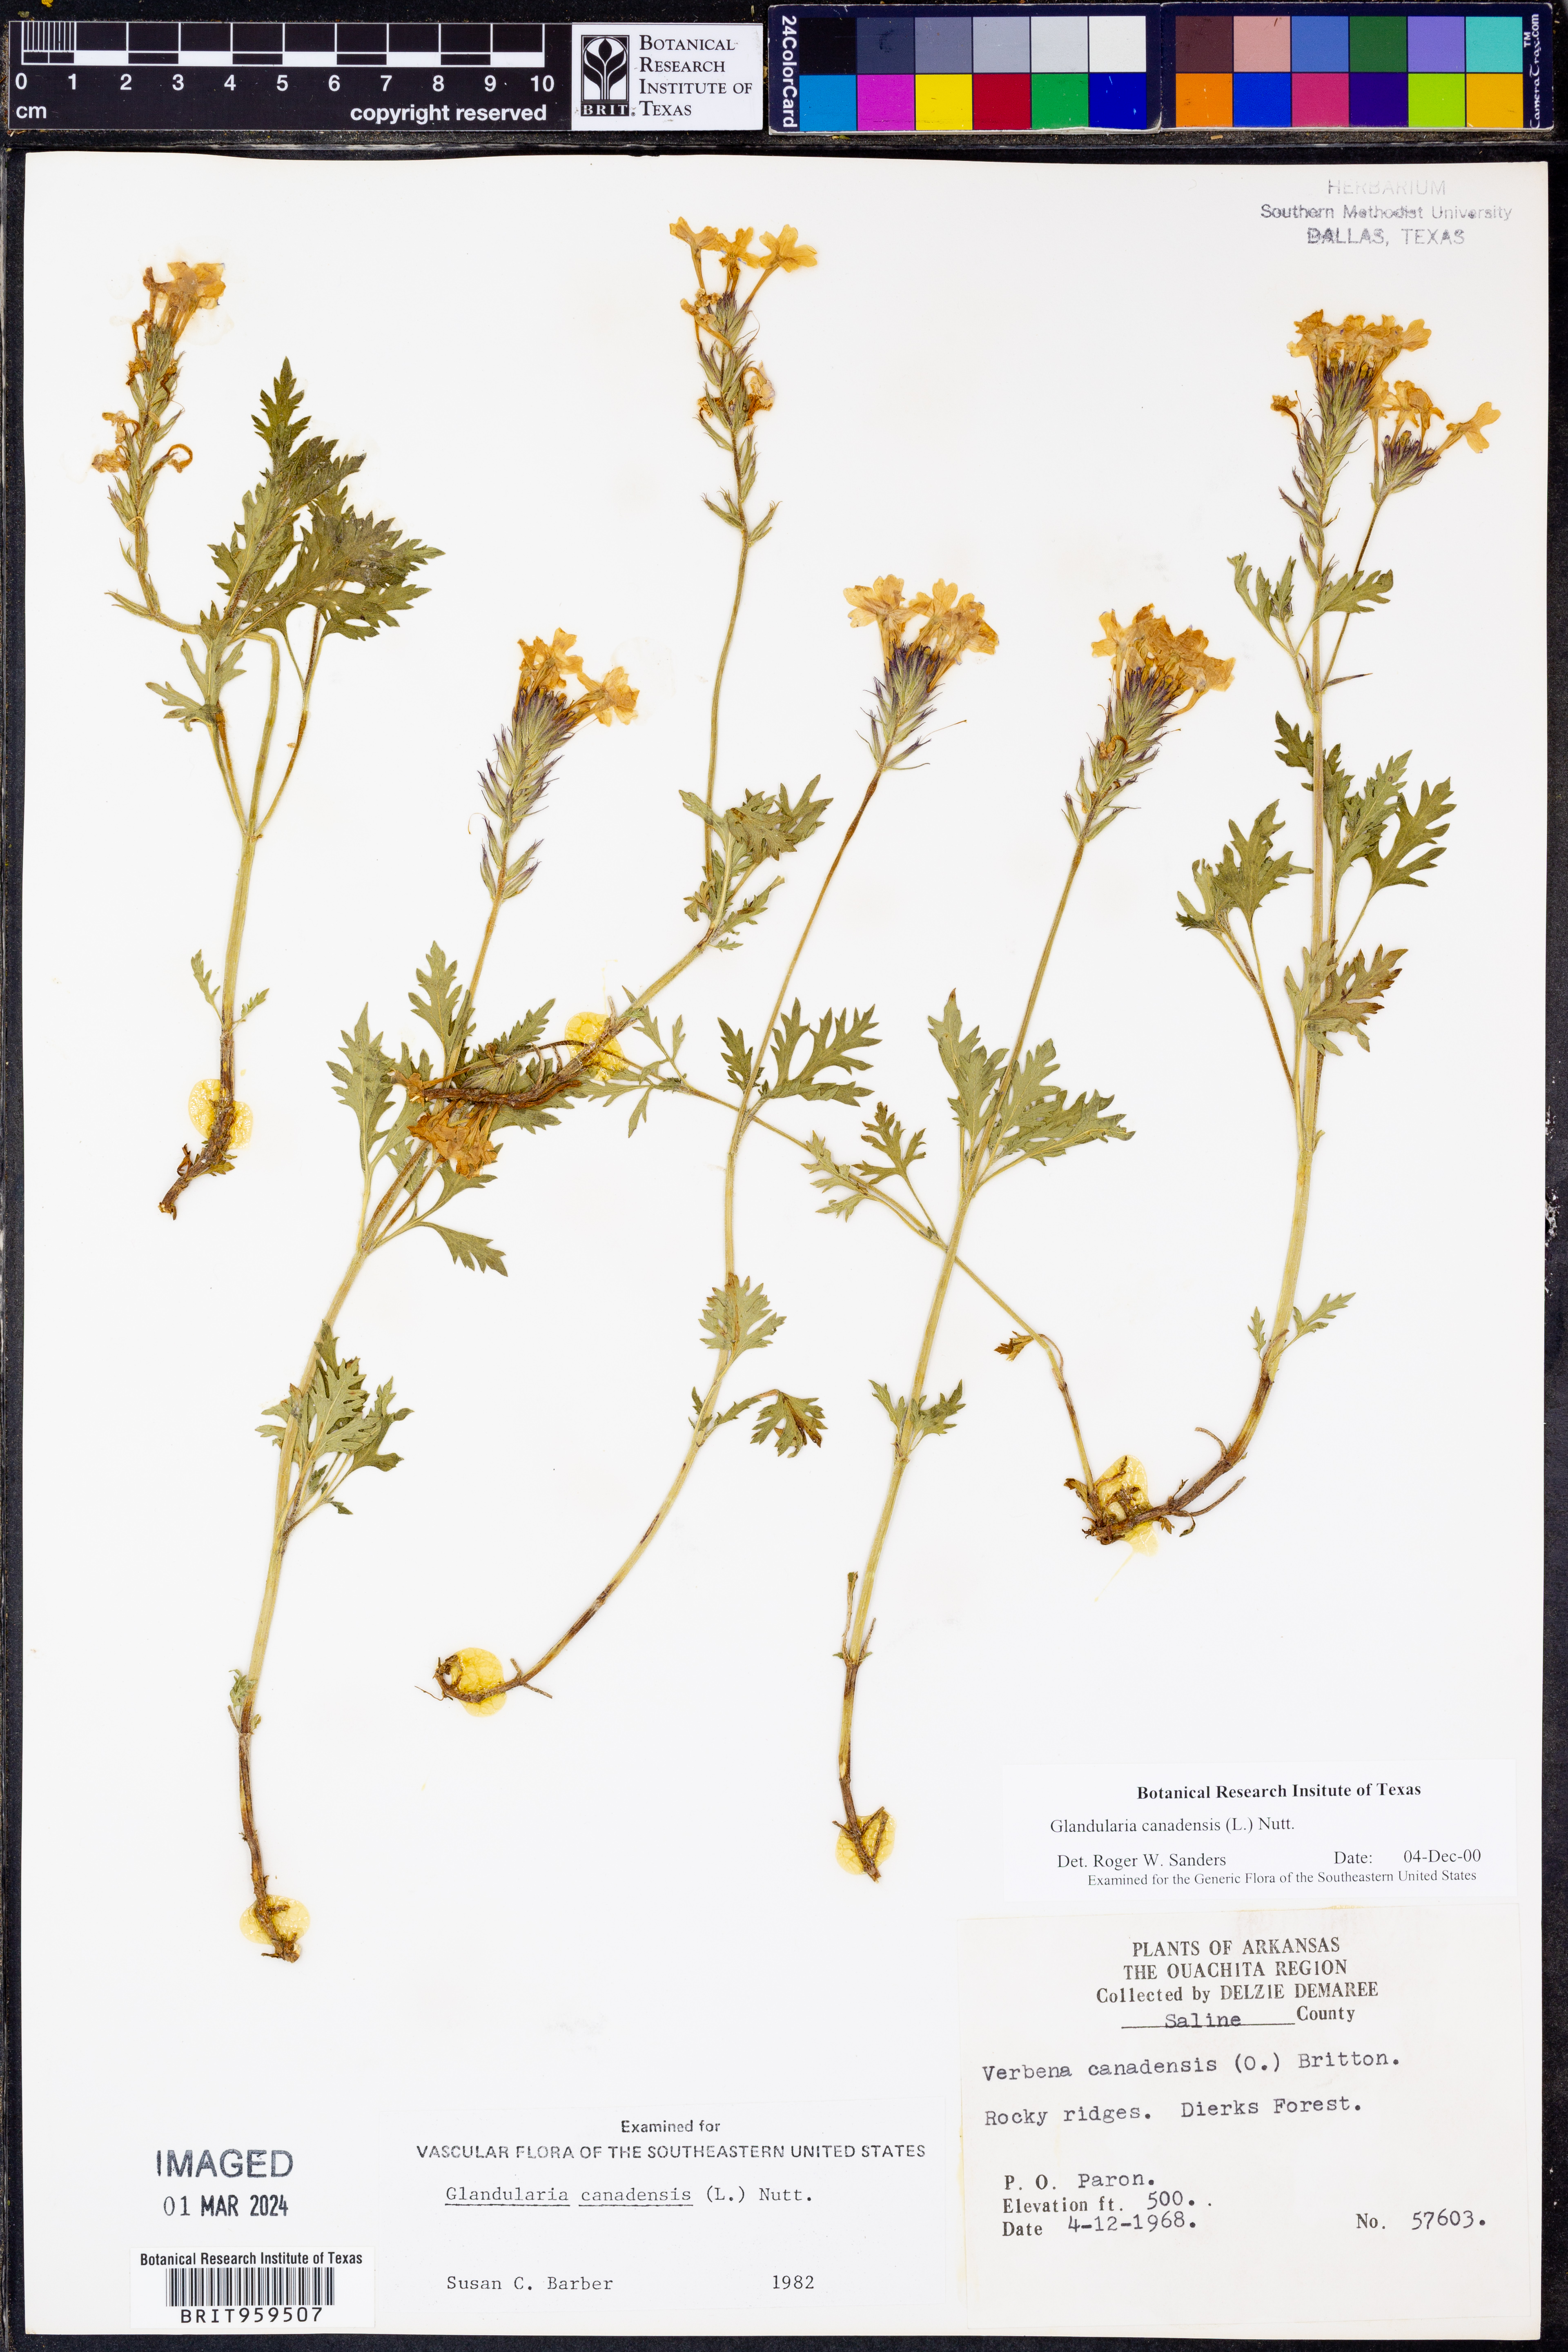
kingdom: Plantae
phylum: Tracheophyta
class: Magnoliopsida
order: Lamiales
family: Verbenaceae
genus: Verbena
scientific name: Verbena canadensis
